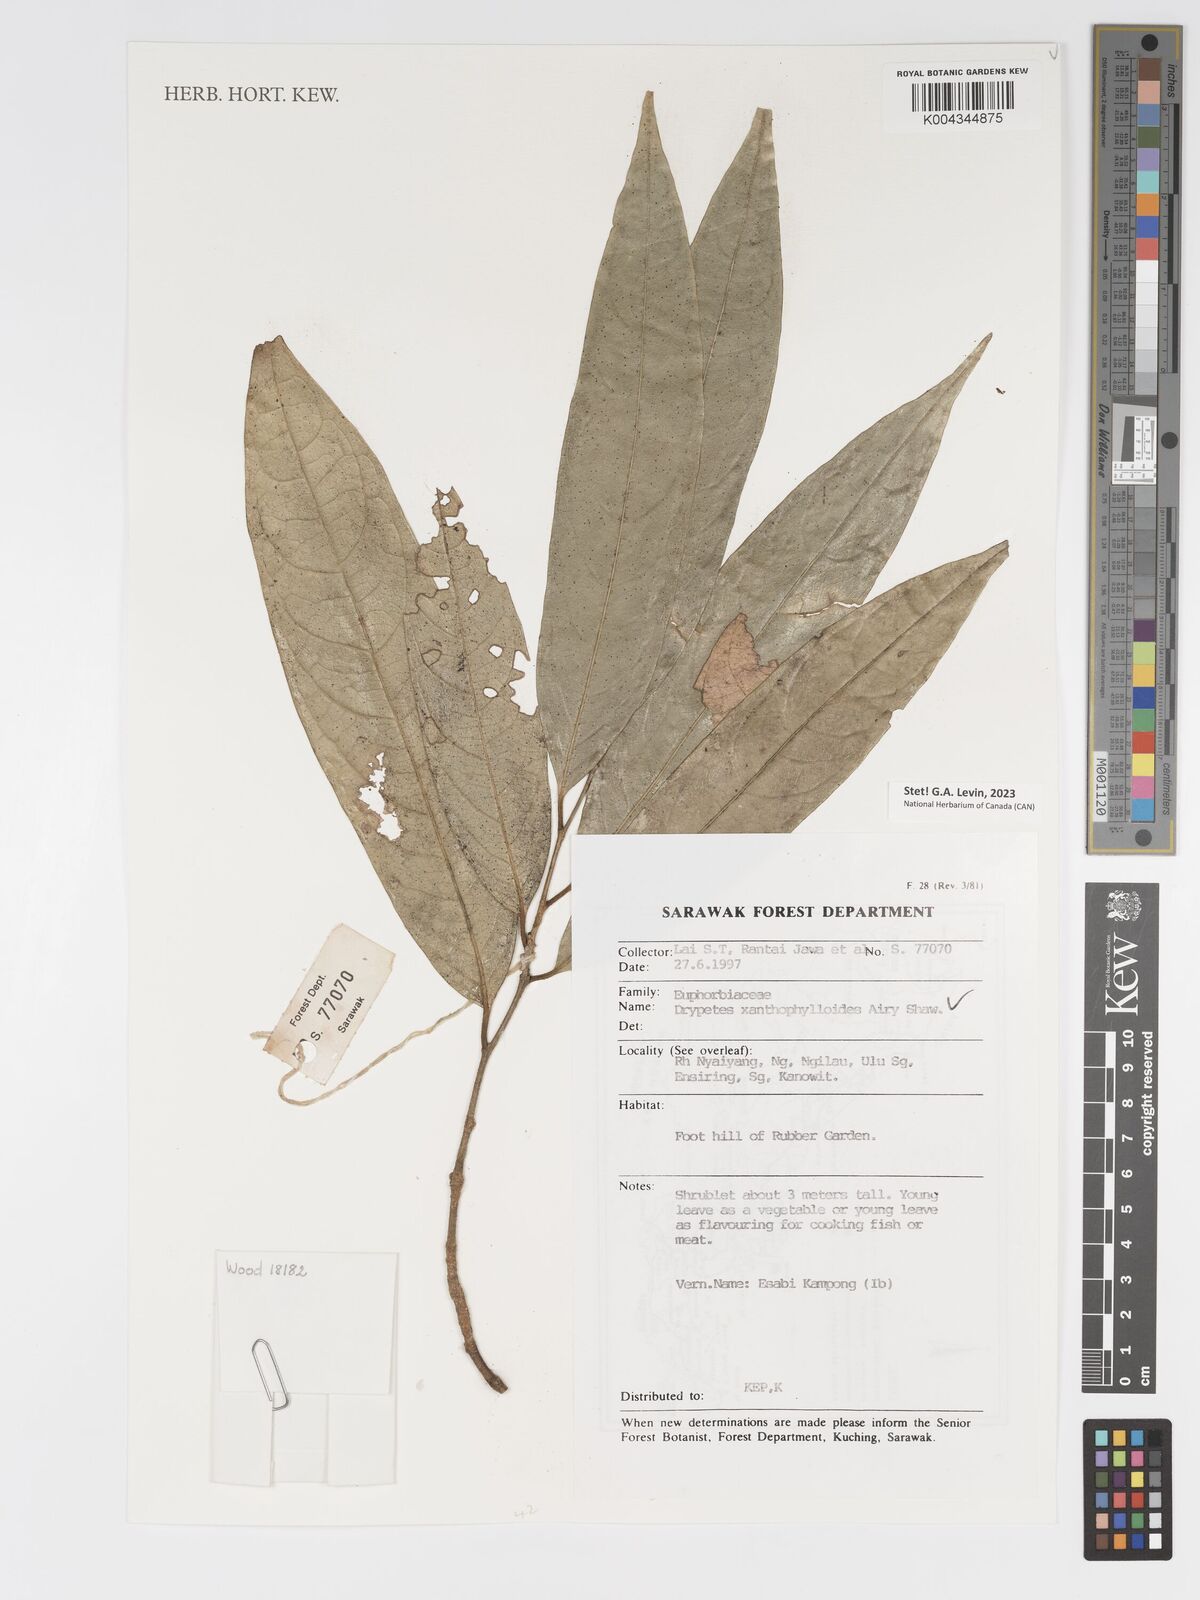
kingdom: Plantae
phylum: Tracheophyta
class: Magnoliopsida
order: Malpighiales
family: Putranjivaceae
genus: Drypetes
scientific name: Drypetes xanthophylloides
